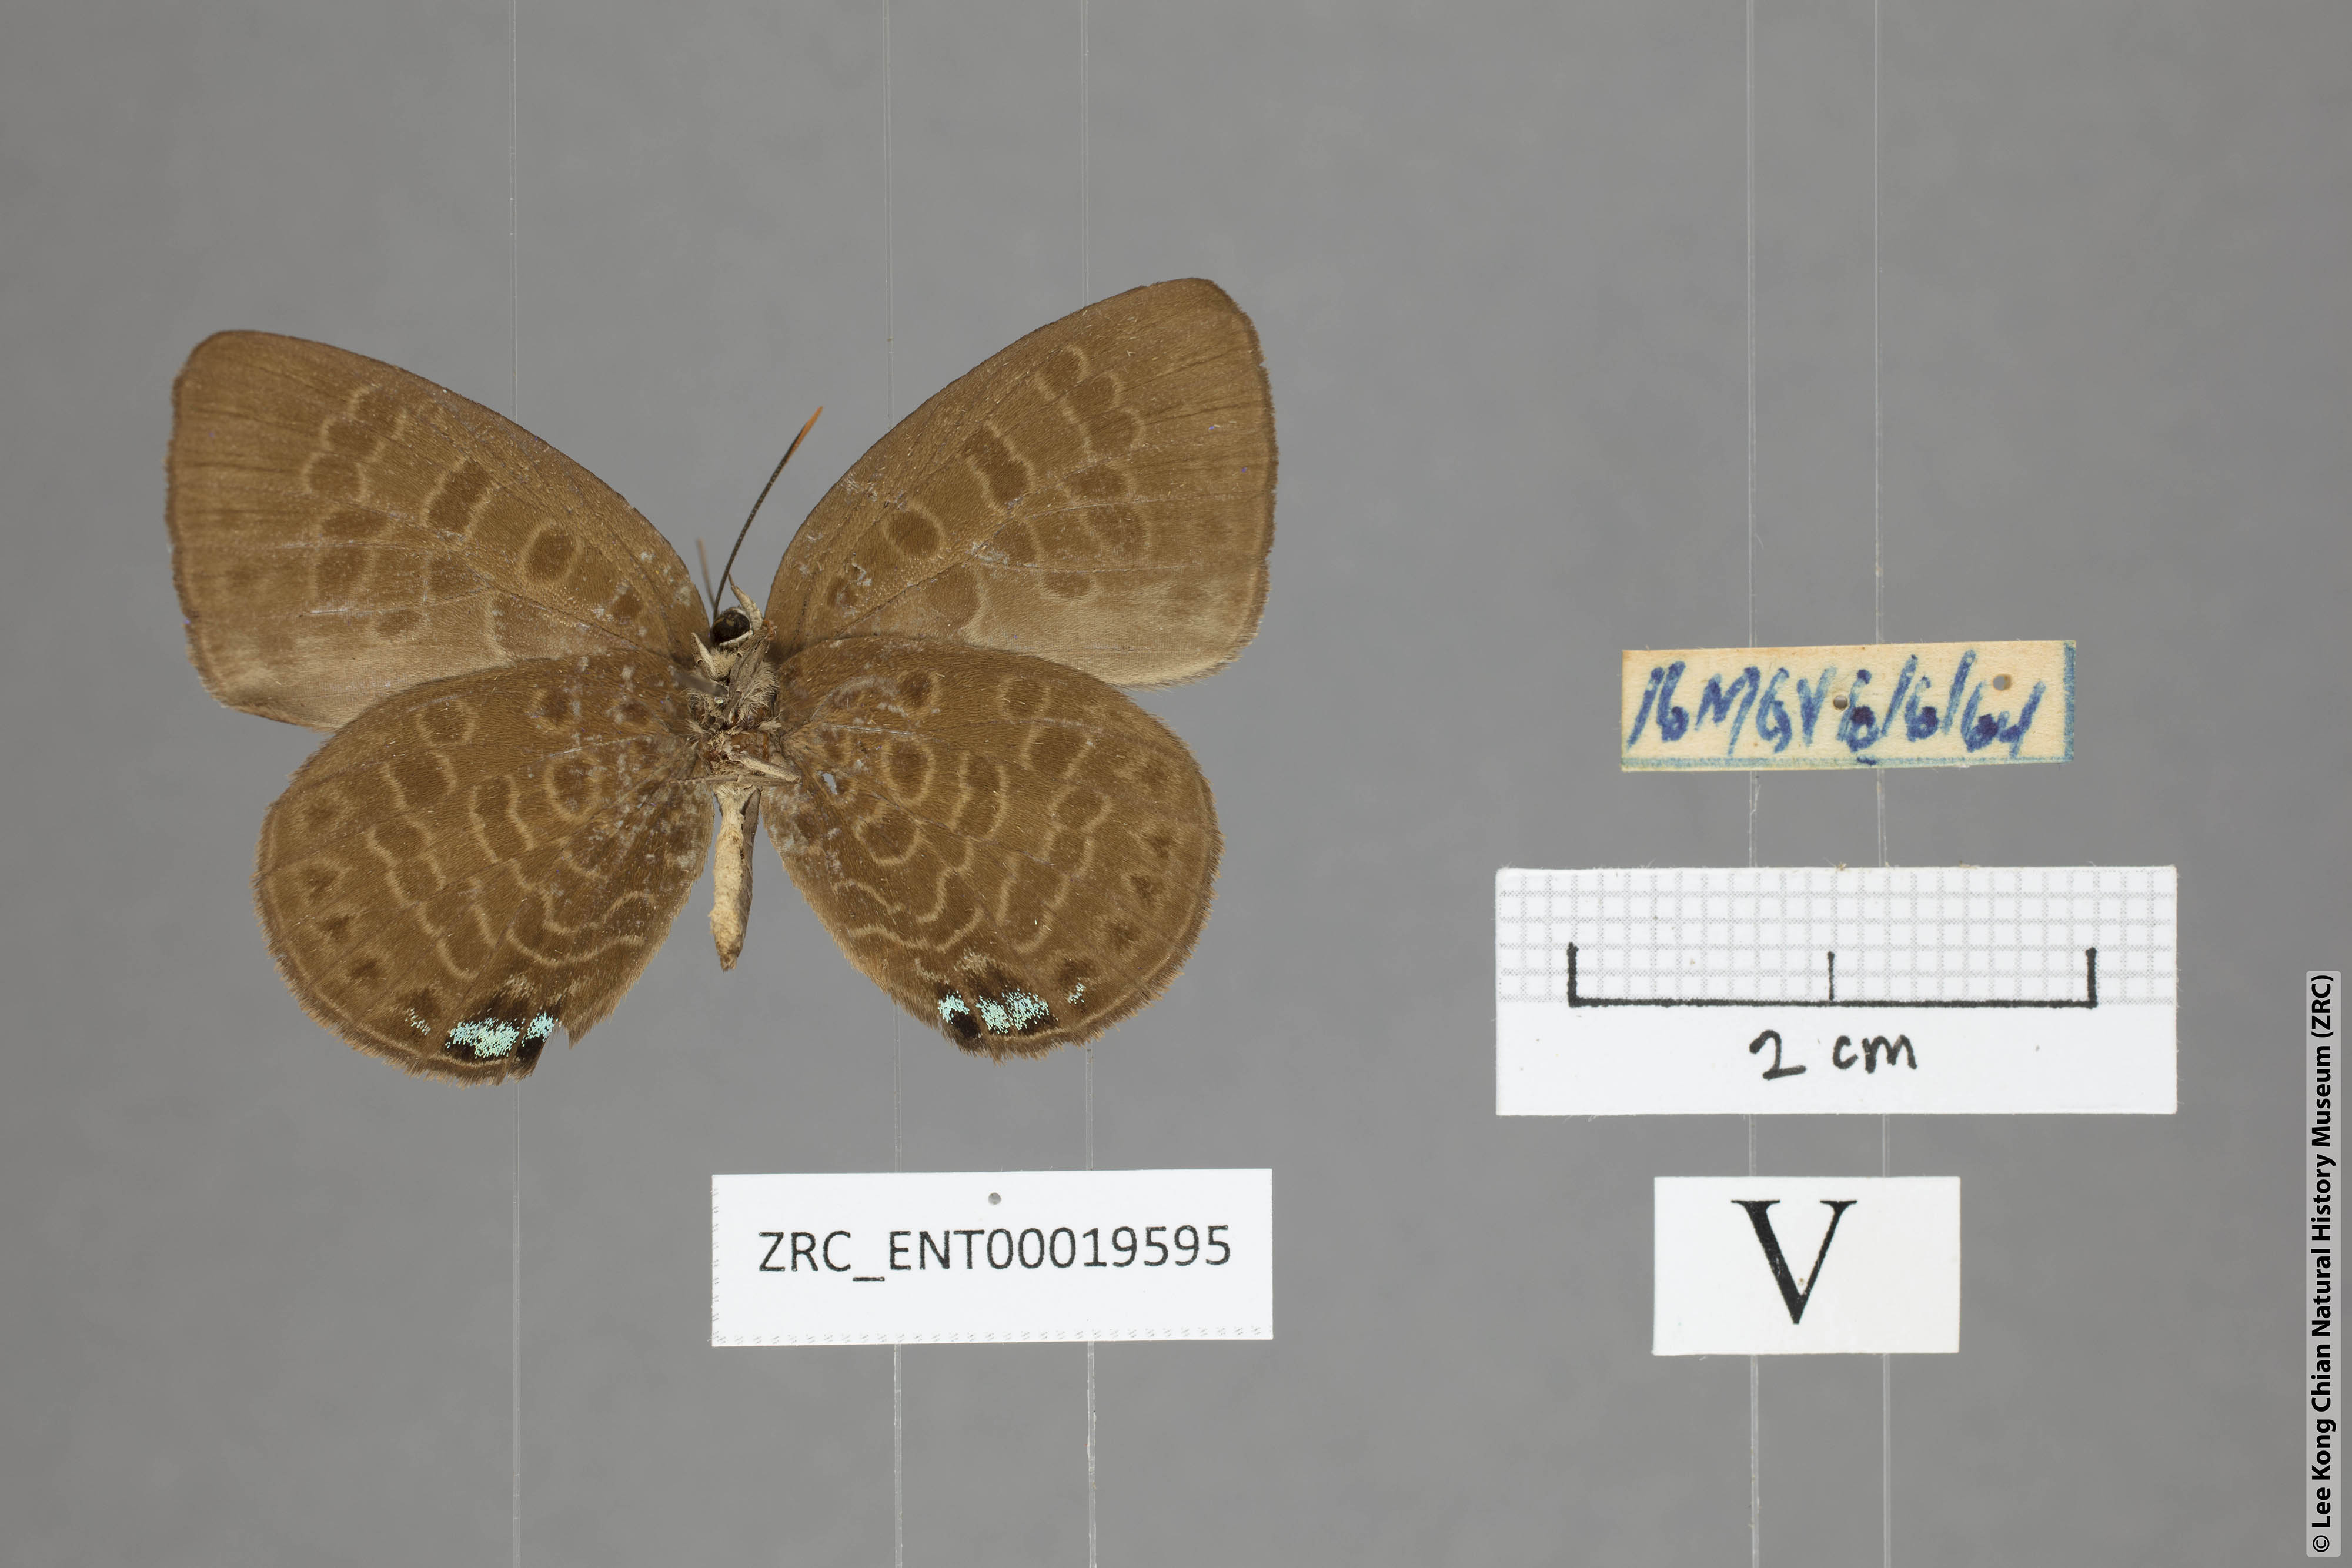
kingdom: Animalia
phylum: Arthropoda
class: Insecta
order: Lepidoptera
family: Lycaenidae
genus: Arhopala
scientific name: Arhopala kurzi
